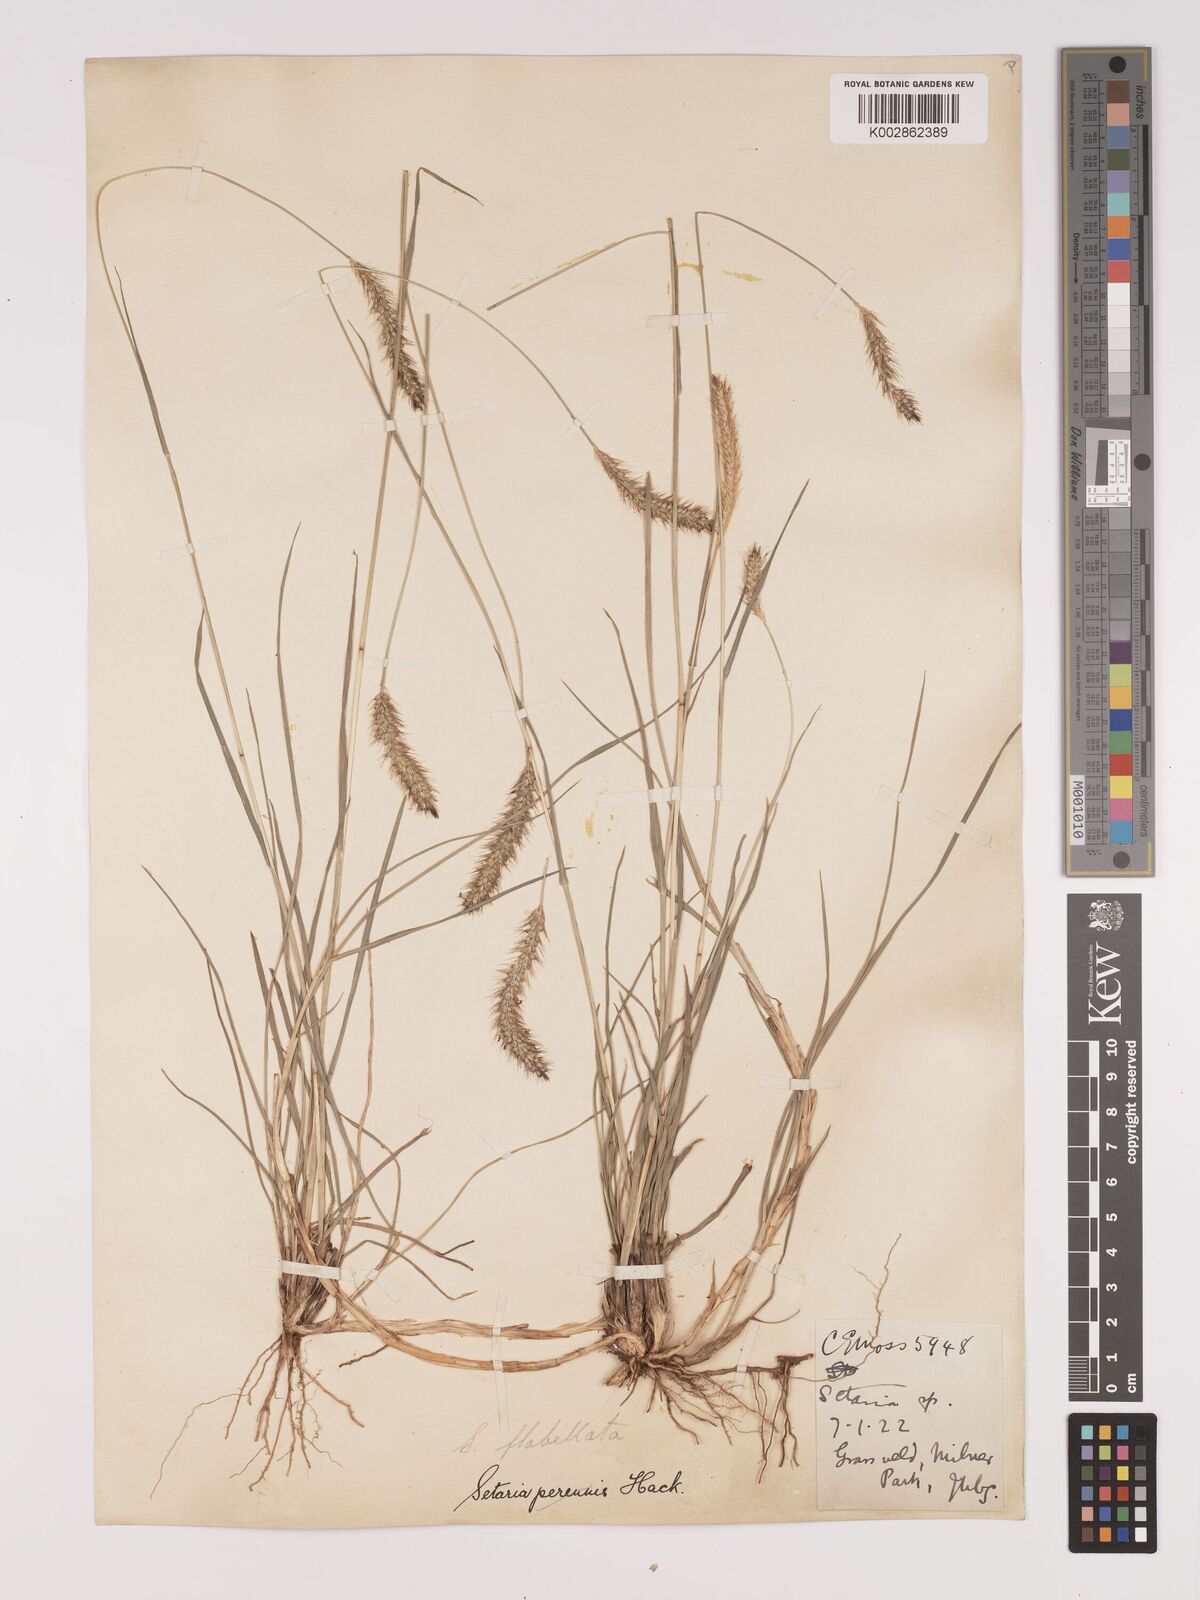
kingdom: Plantae
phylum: Tracheophyta
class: Liliopsida
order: Poales
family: Poaceae
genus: Setaria
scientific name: Setaria sphacelata
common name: African bristlegrass
